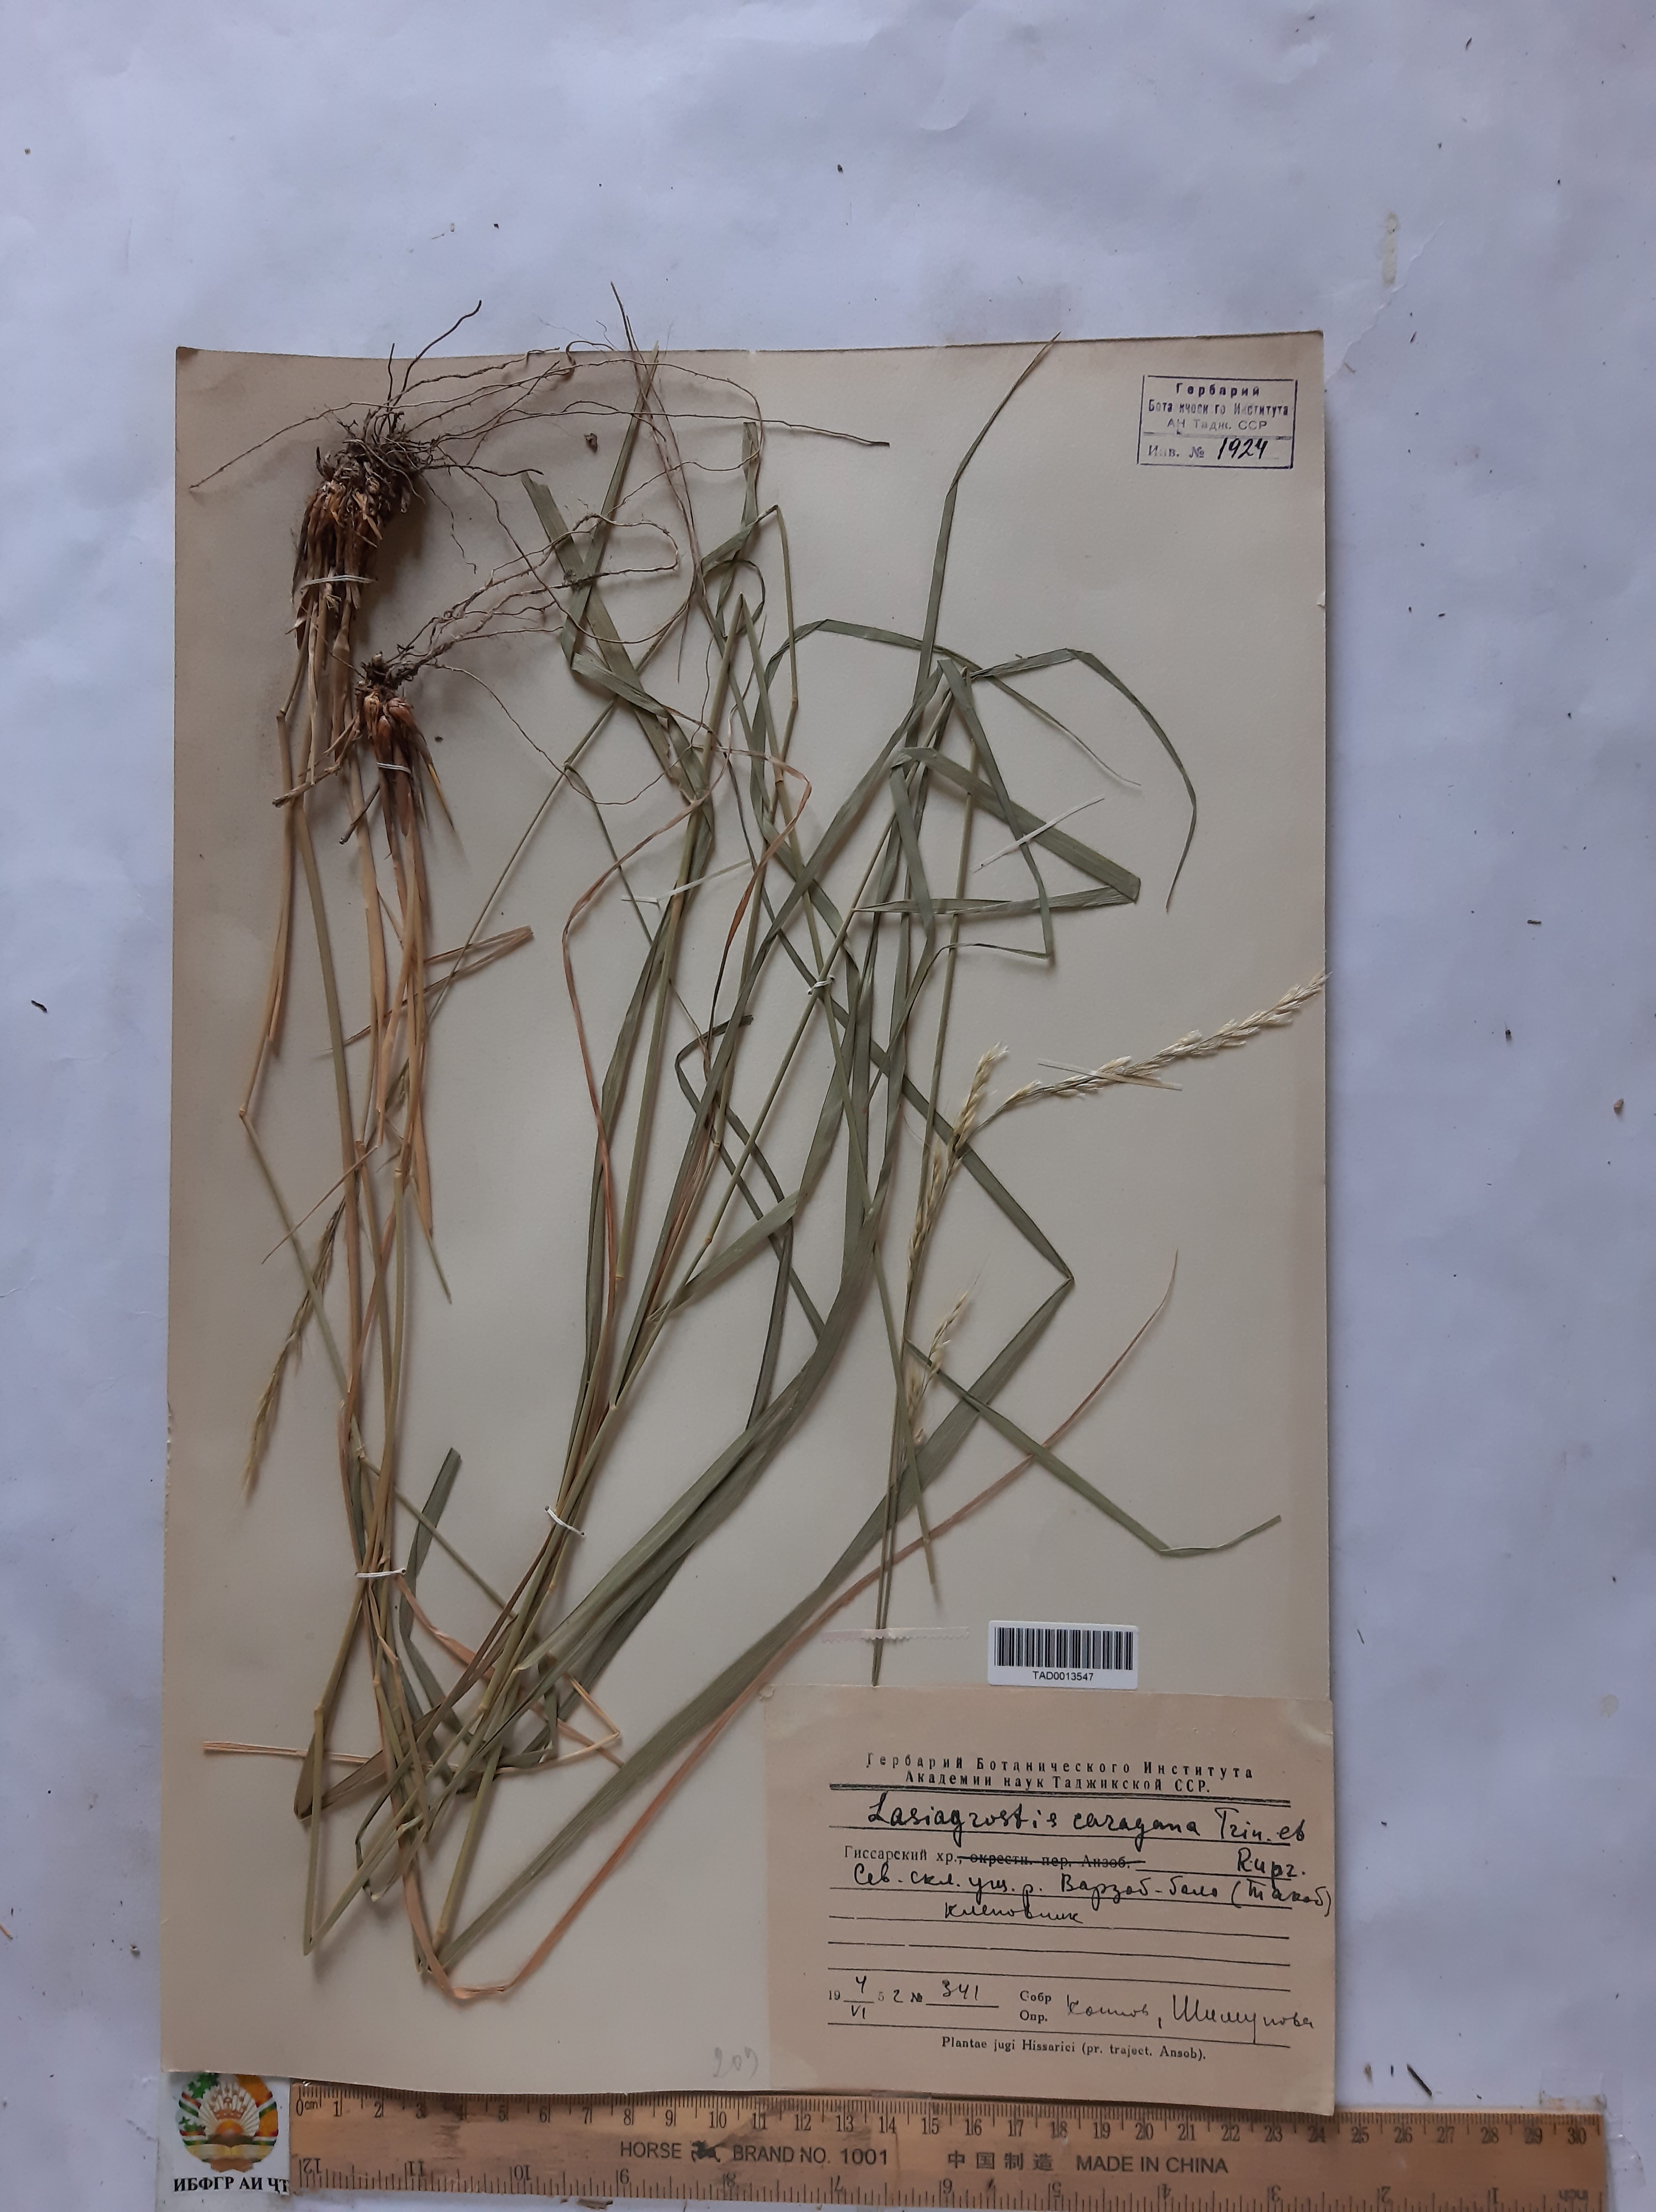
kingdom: Plantae
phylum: Tracheophyta
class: Liliopsida
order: Poales
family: Poaceae
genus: Stipa
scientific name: Stipa conferta
